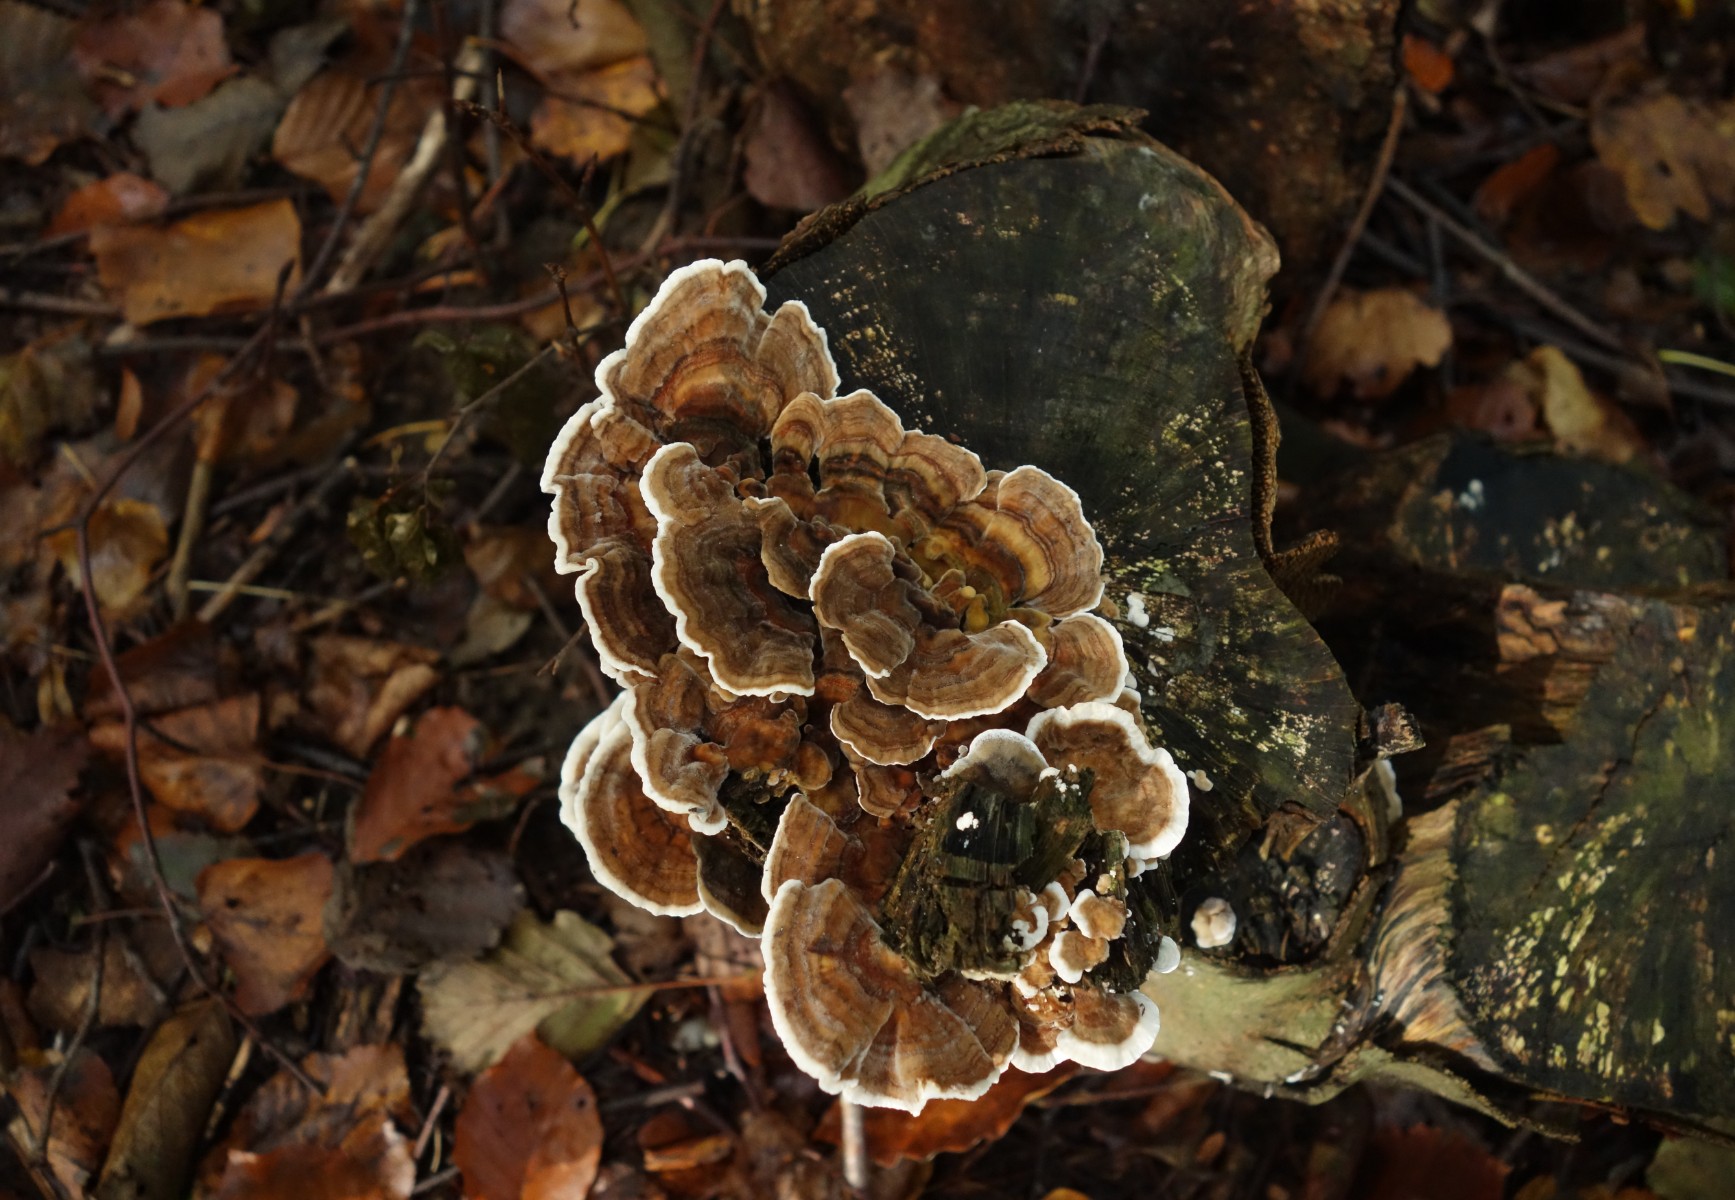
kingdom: Fungi
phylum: Basidiomycota
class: Agaricomycetes
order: Polyporales
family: Polyporaceae
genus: Trametes
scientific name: Trametes versicolor
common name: broget læderporesvamp
